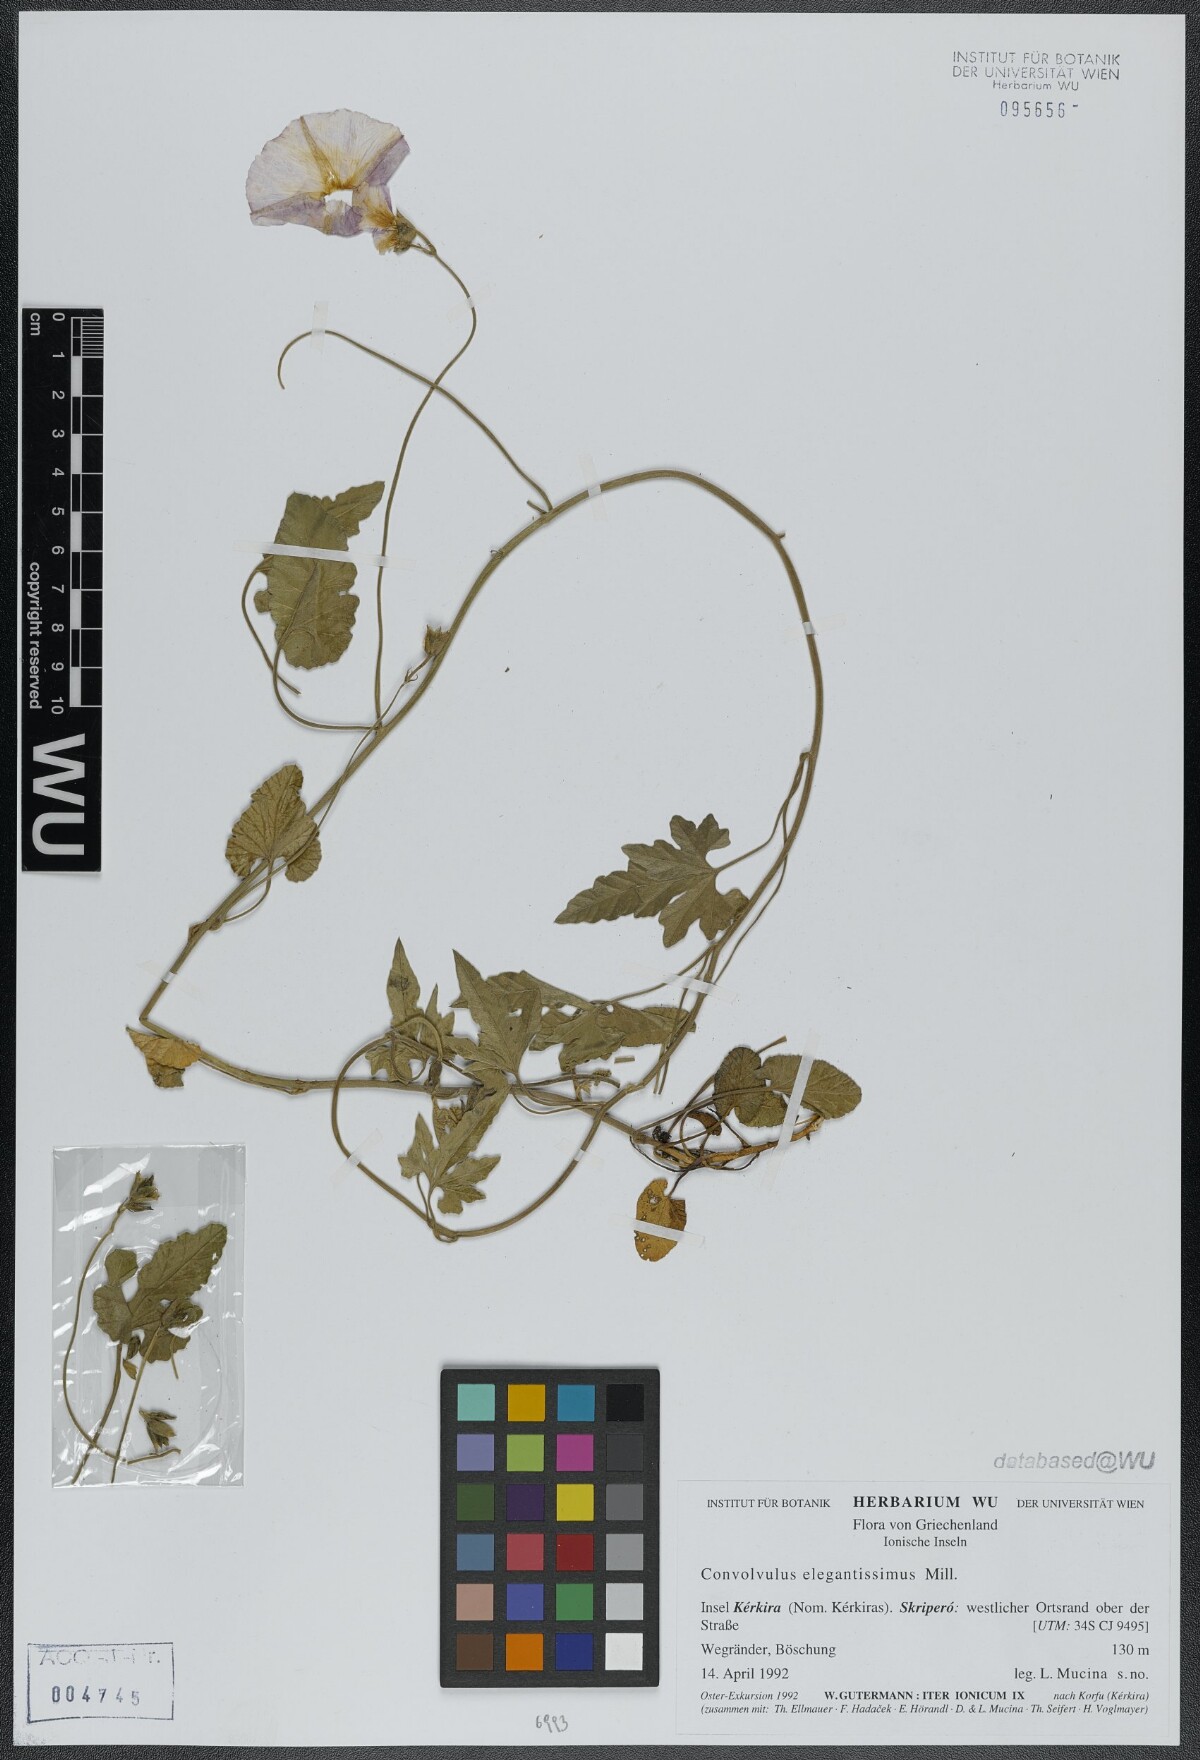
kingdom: Plantae
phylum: Tracheophyta
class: Magnoliopsida
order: Solanales
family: Convolvulaceae
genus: Convolvulus
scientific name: Convolvulus elegantissimus
